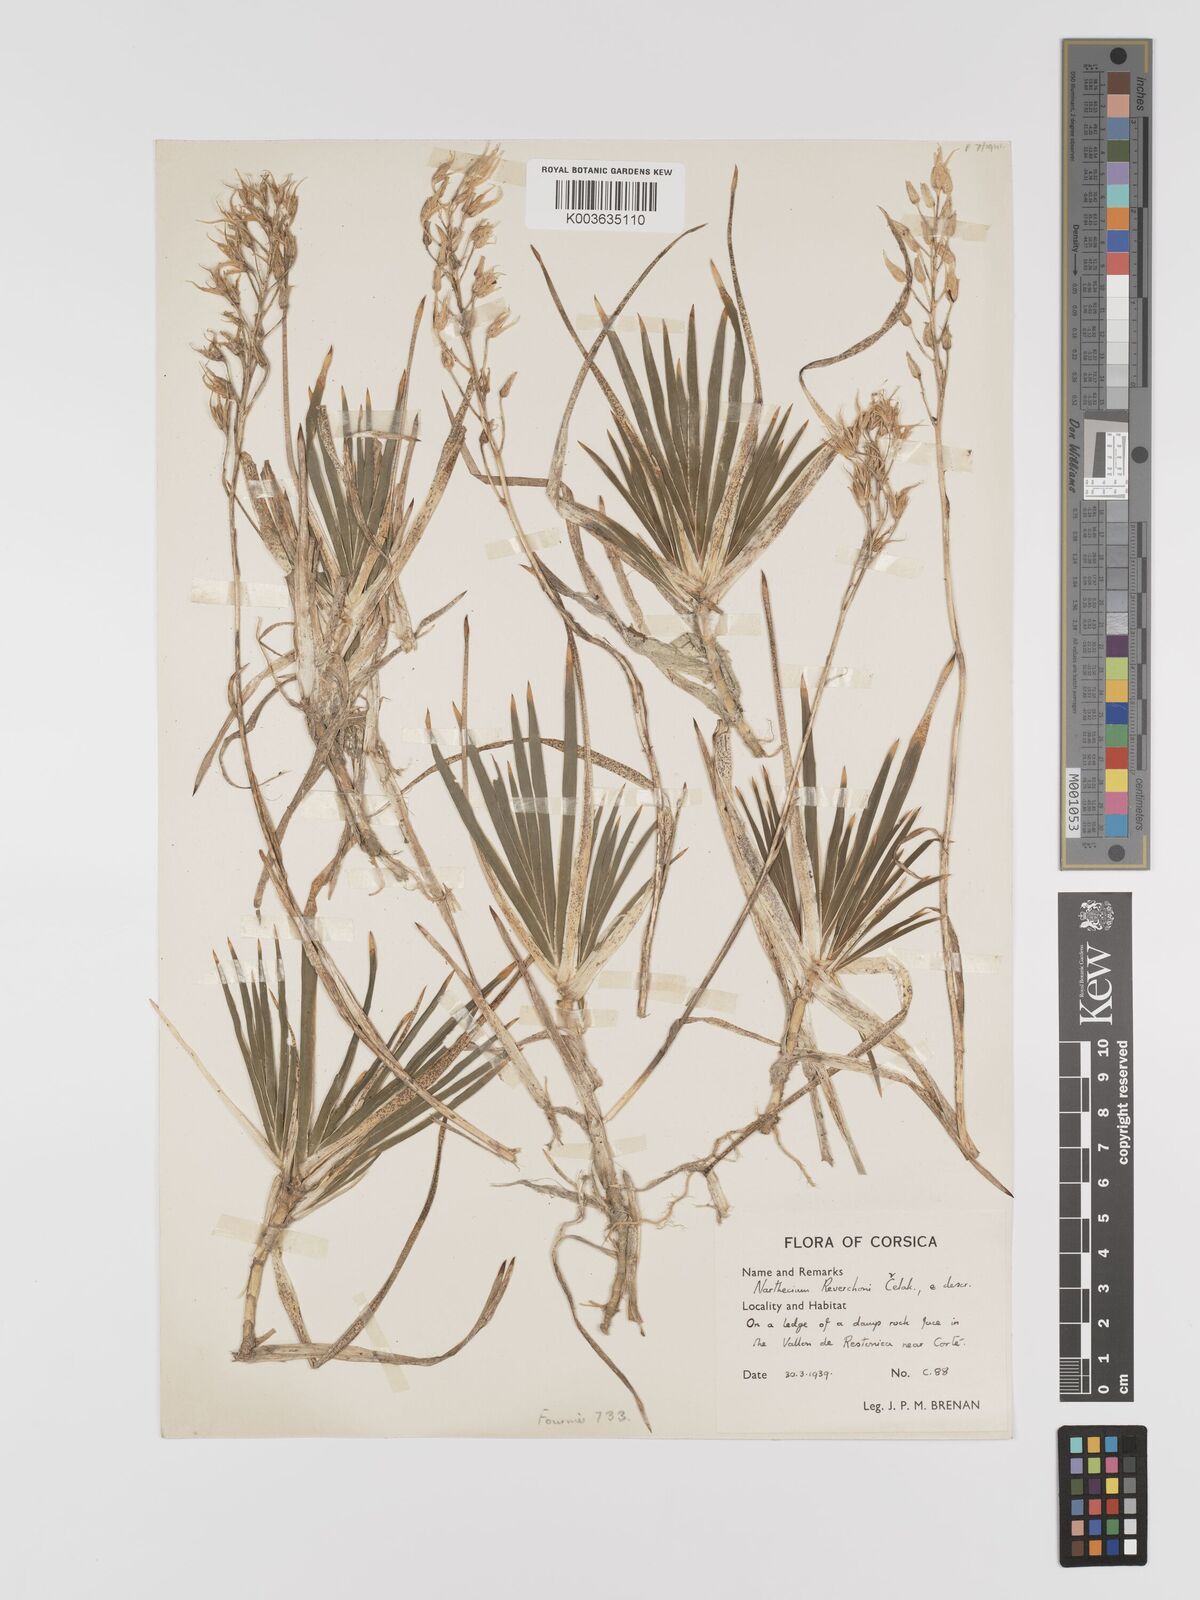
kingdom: Plantae
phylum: Tracheophyta
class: Liliopsida
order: Dioscoreales
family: Nartheciaceae
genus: Narthecium
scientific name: Narthecium reverchonii
